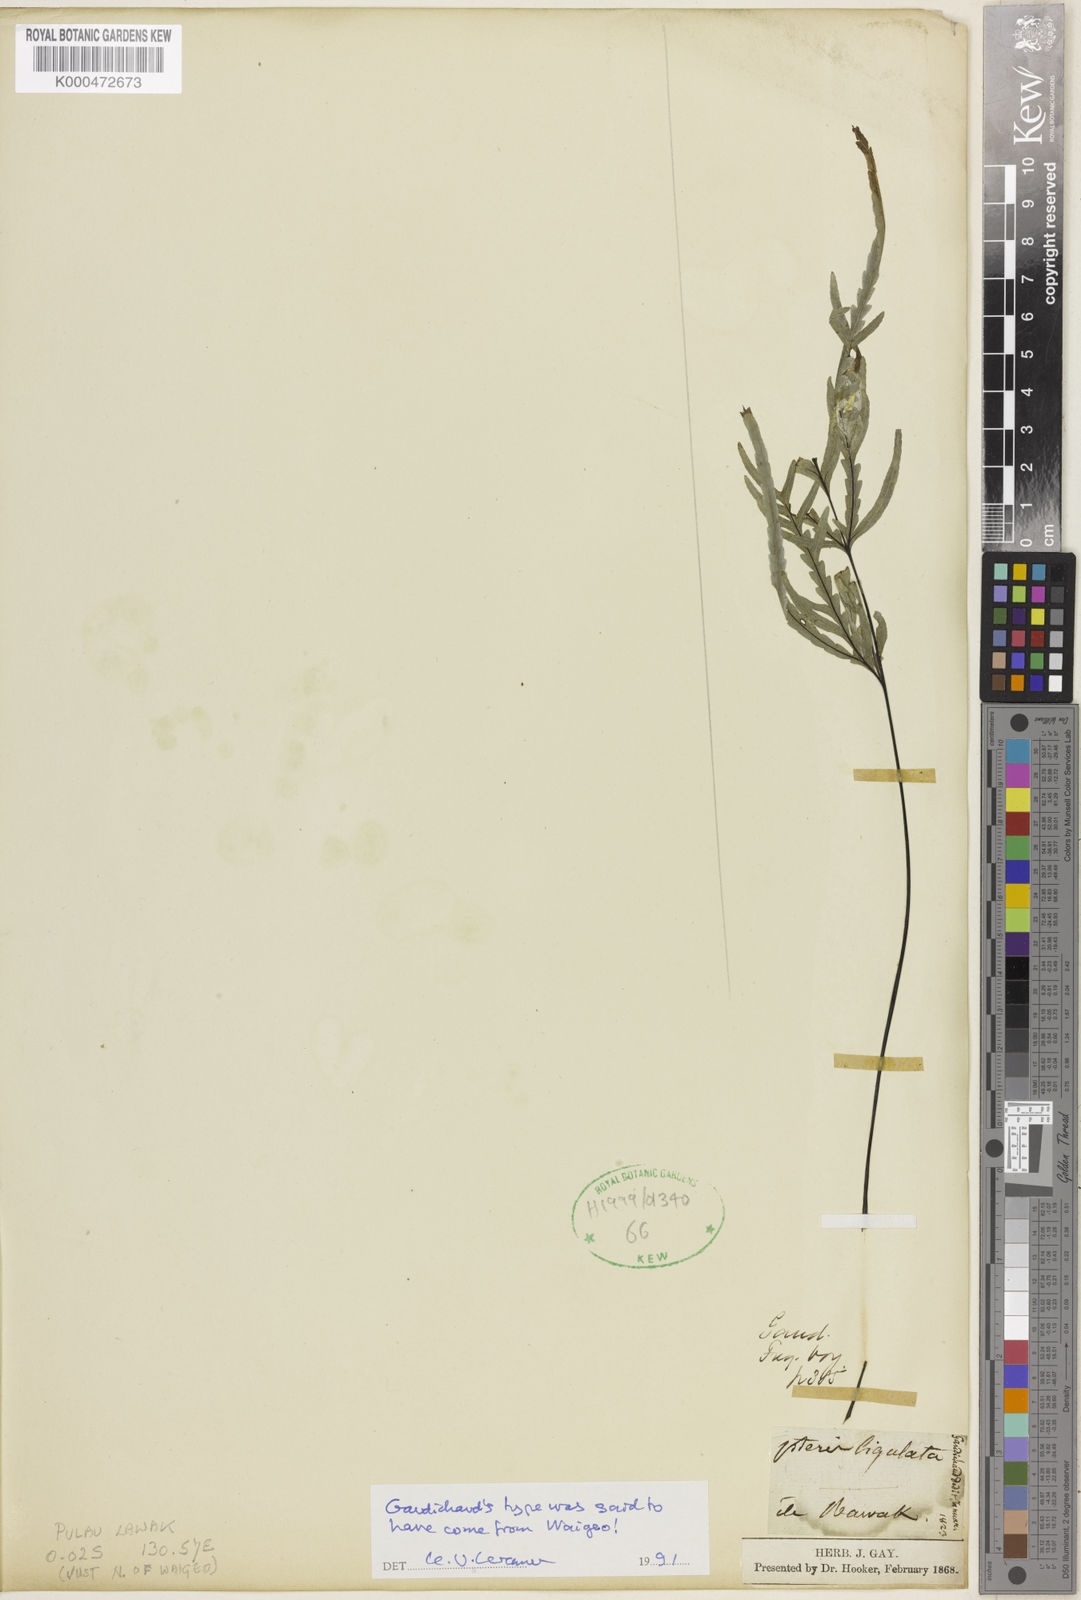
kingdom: Plantae
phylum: Tracheophyta
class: Polypodiopsida
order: Polypodiales
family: Pteridaceae
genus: Pteris
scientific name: Pteris ligulata
